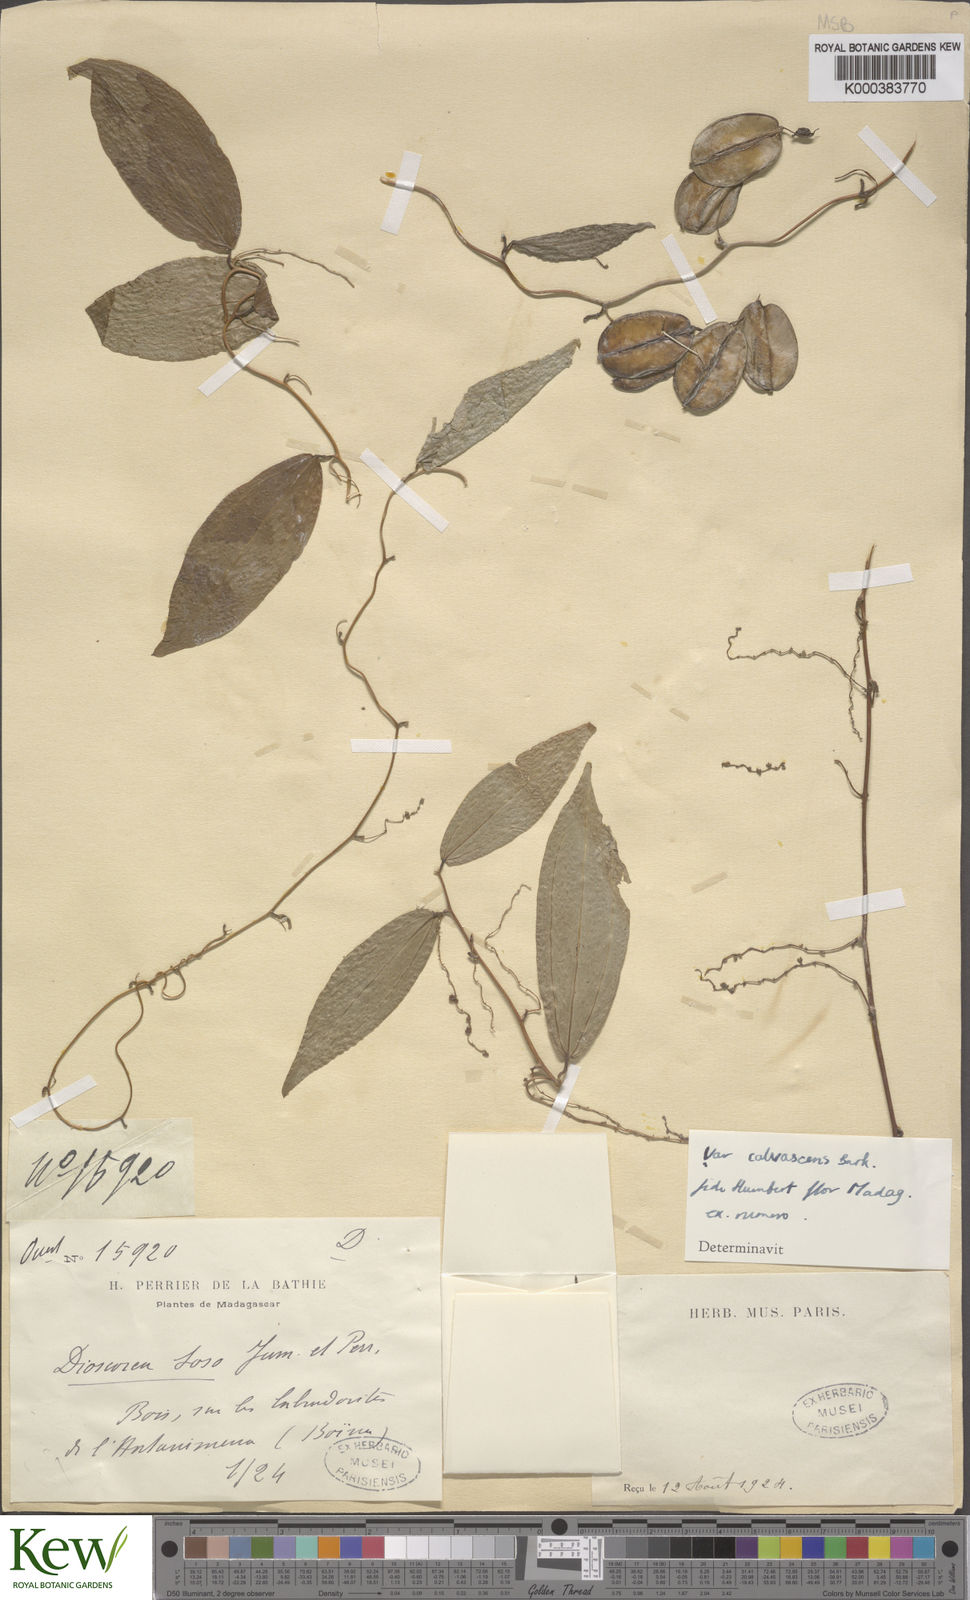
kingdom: Plantae
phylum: Tracheophyta
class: Liliopsida
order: Dioscoreales
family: Dioscoreaceae
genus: Dioscorea
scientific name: Dioscorea
